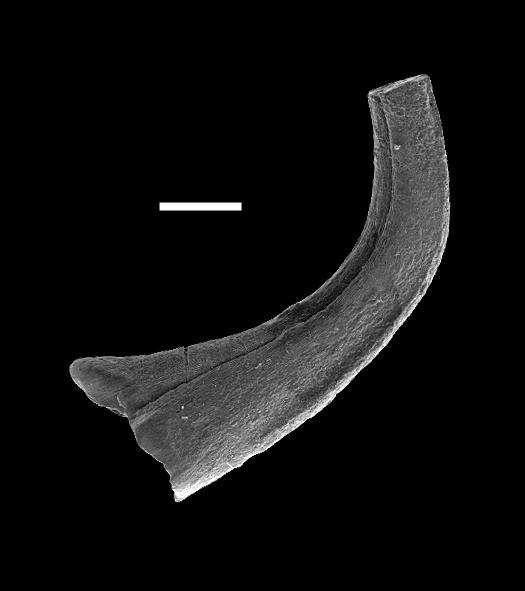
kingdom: Animalia
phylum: Chordata
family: Distacodontidae
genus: Panderodus
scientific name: Panderodus
